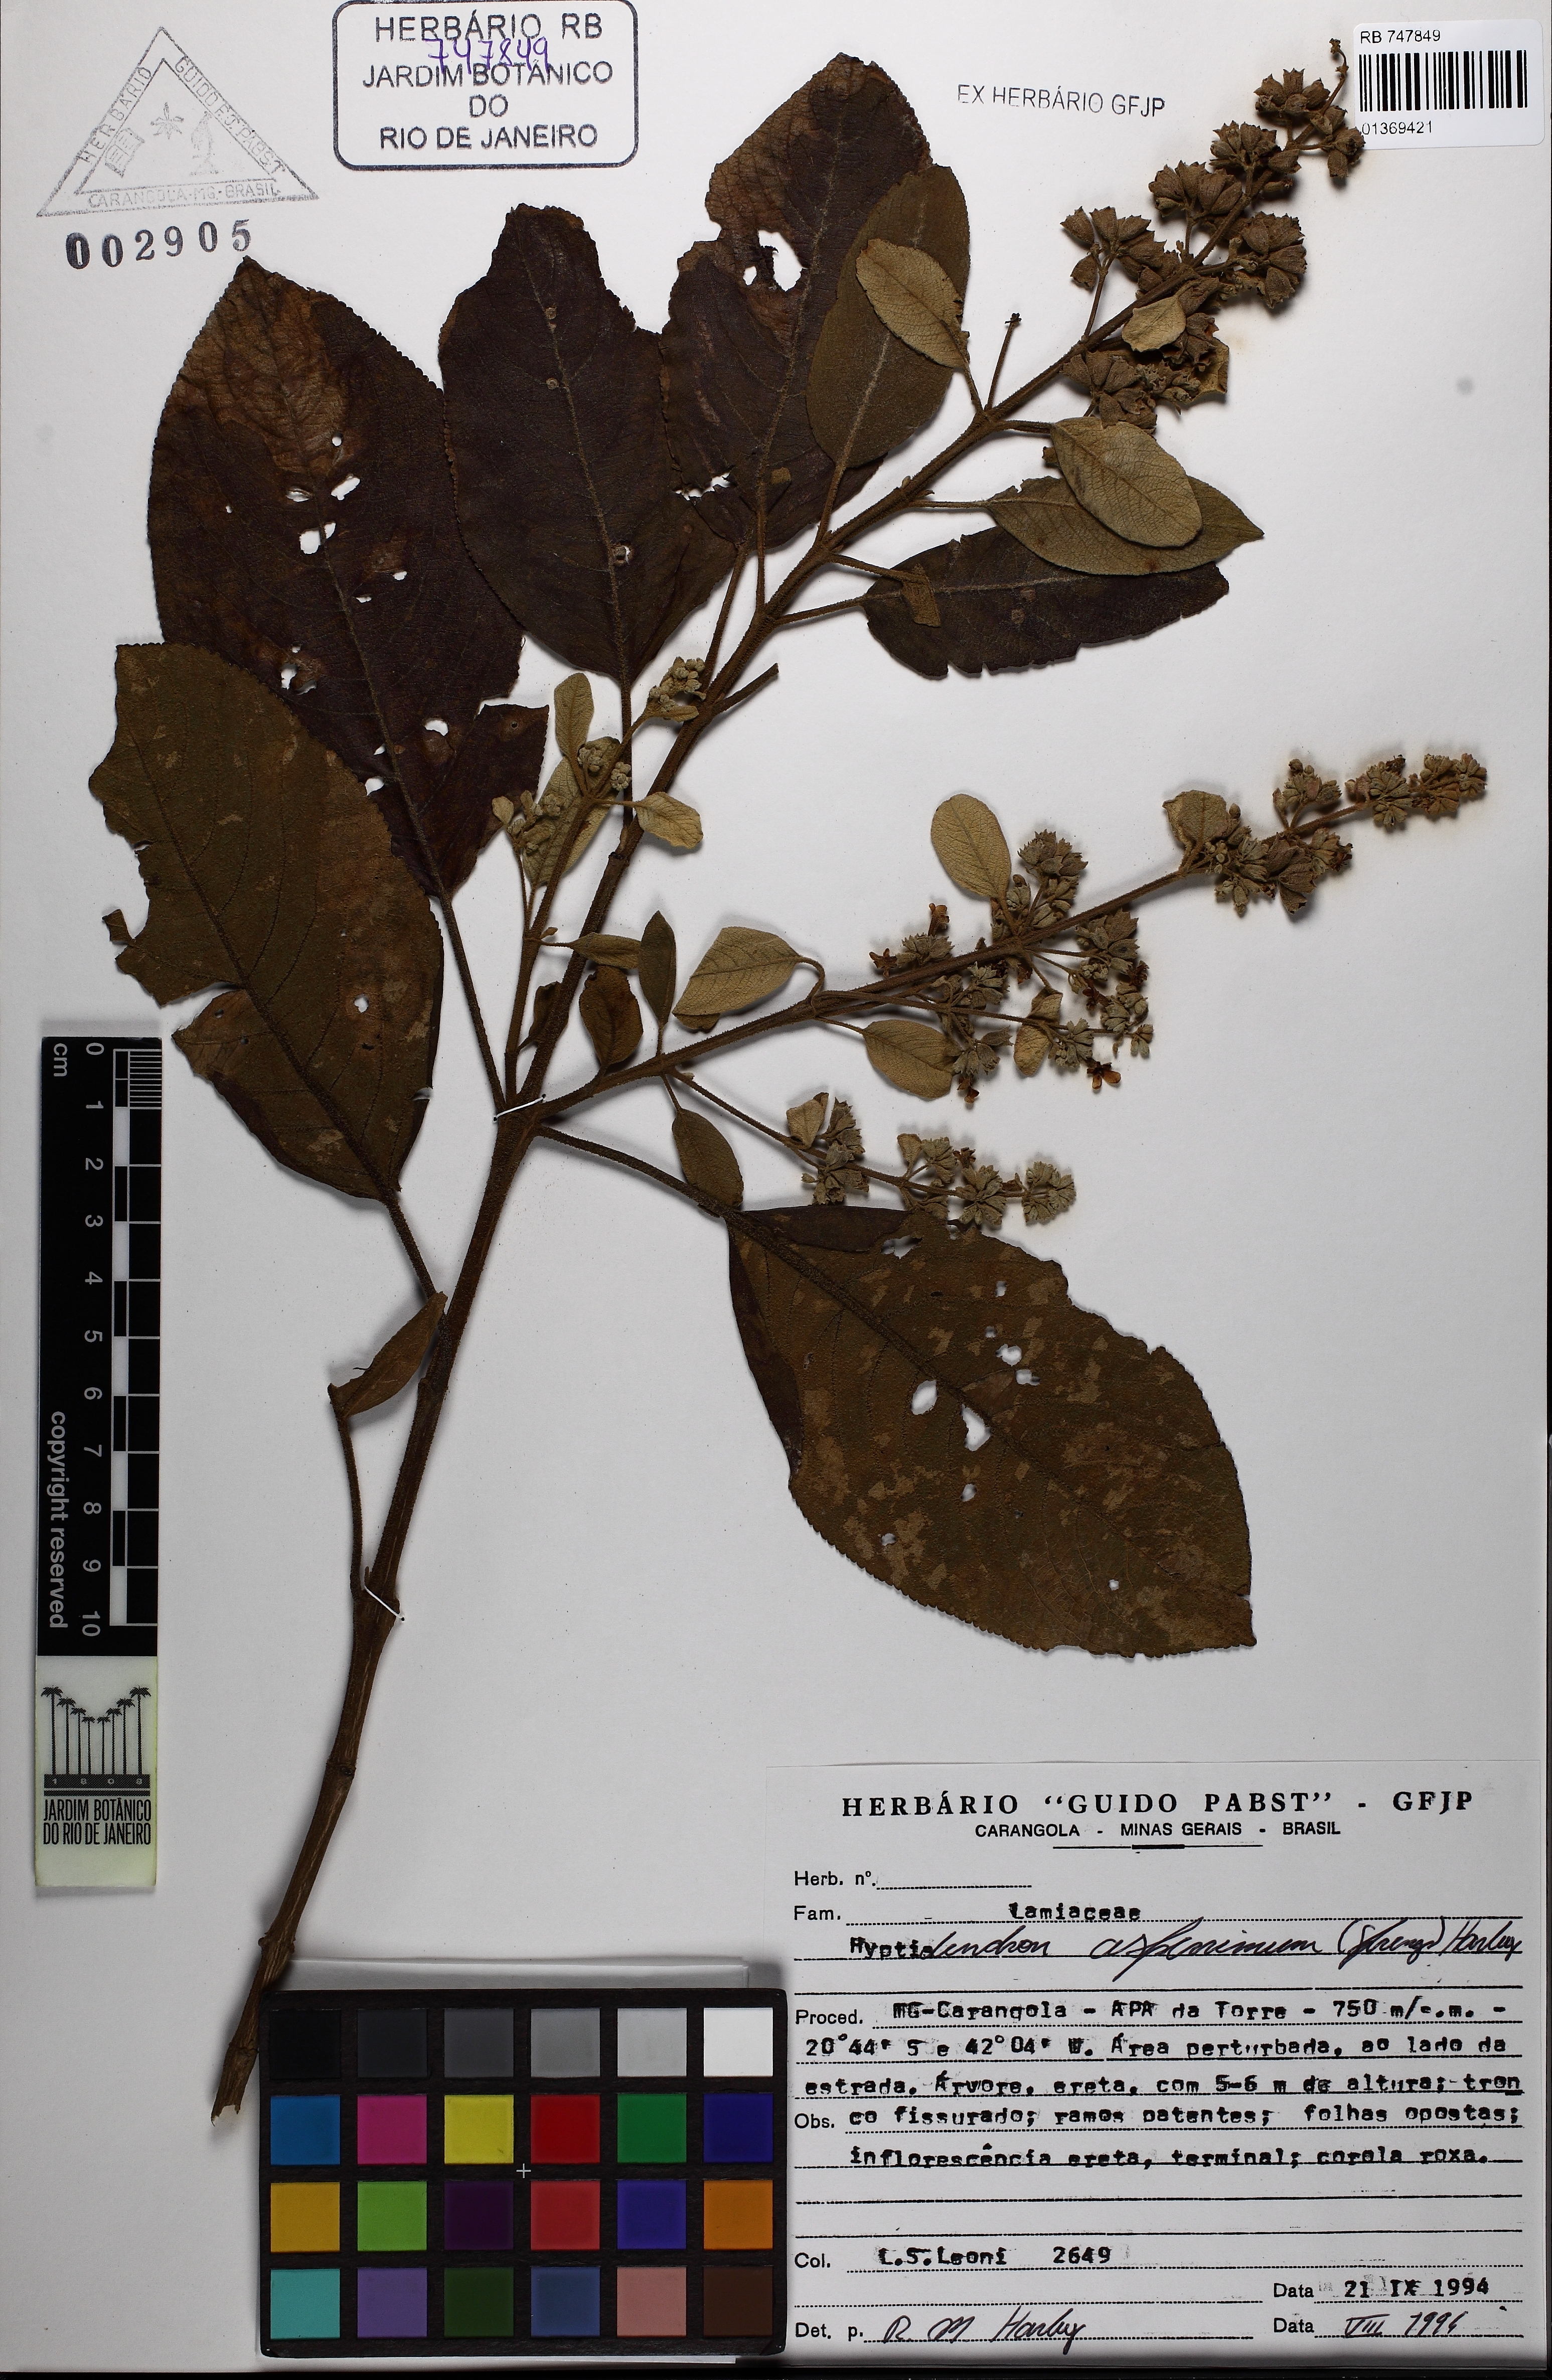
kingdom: Plantae
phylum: Tracheophyta
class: Magnoliopsida
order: Lamiales
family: Lamiaceae
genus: Hyptidendron
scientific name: Hyptidendron asperrimum
